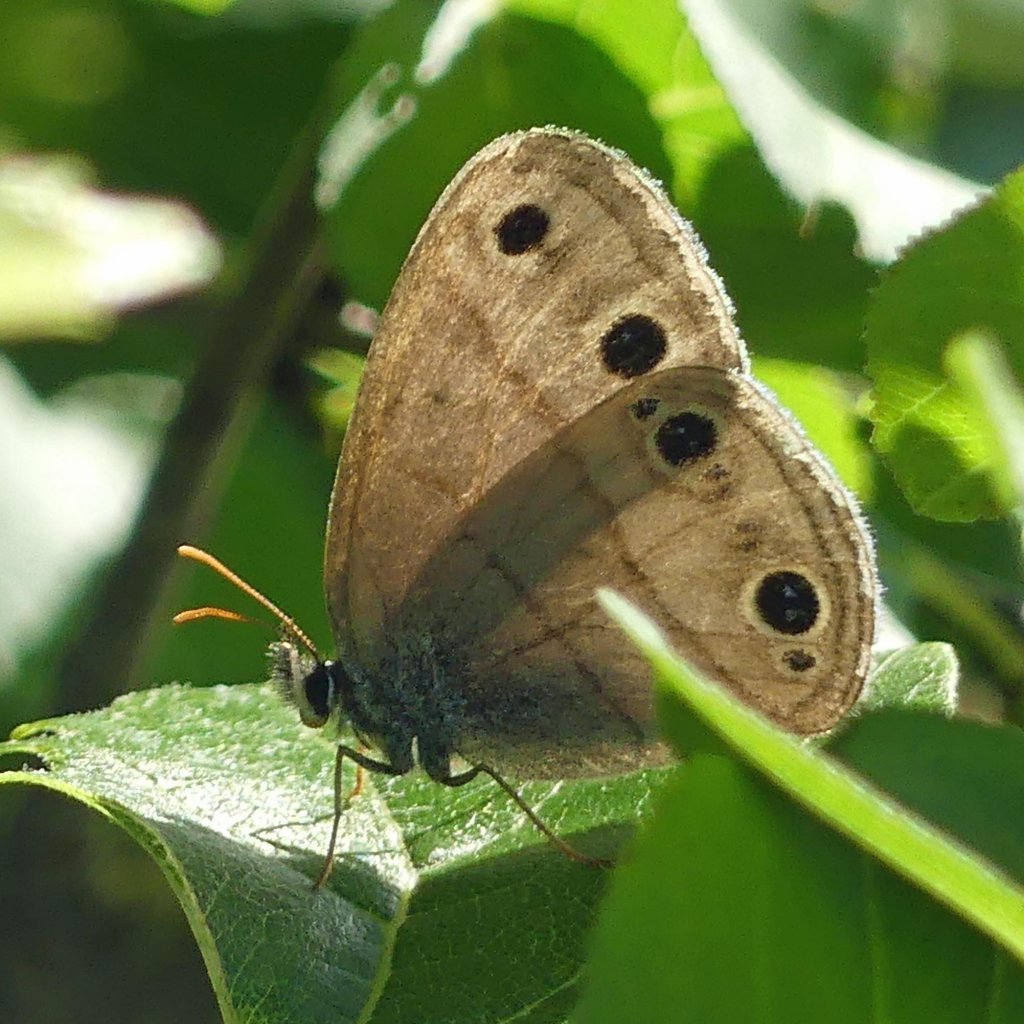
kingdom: Animalia
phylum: Arthropoda
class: Insecta
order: Lepidoptera
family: Nymphalidae
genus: Euptychia
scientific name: Euptychia cymela
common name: Little Wood Satyr
